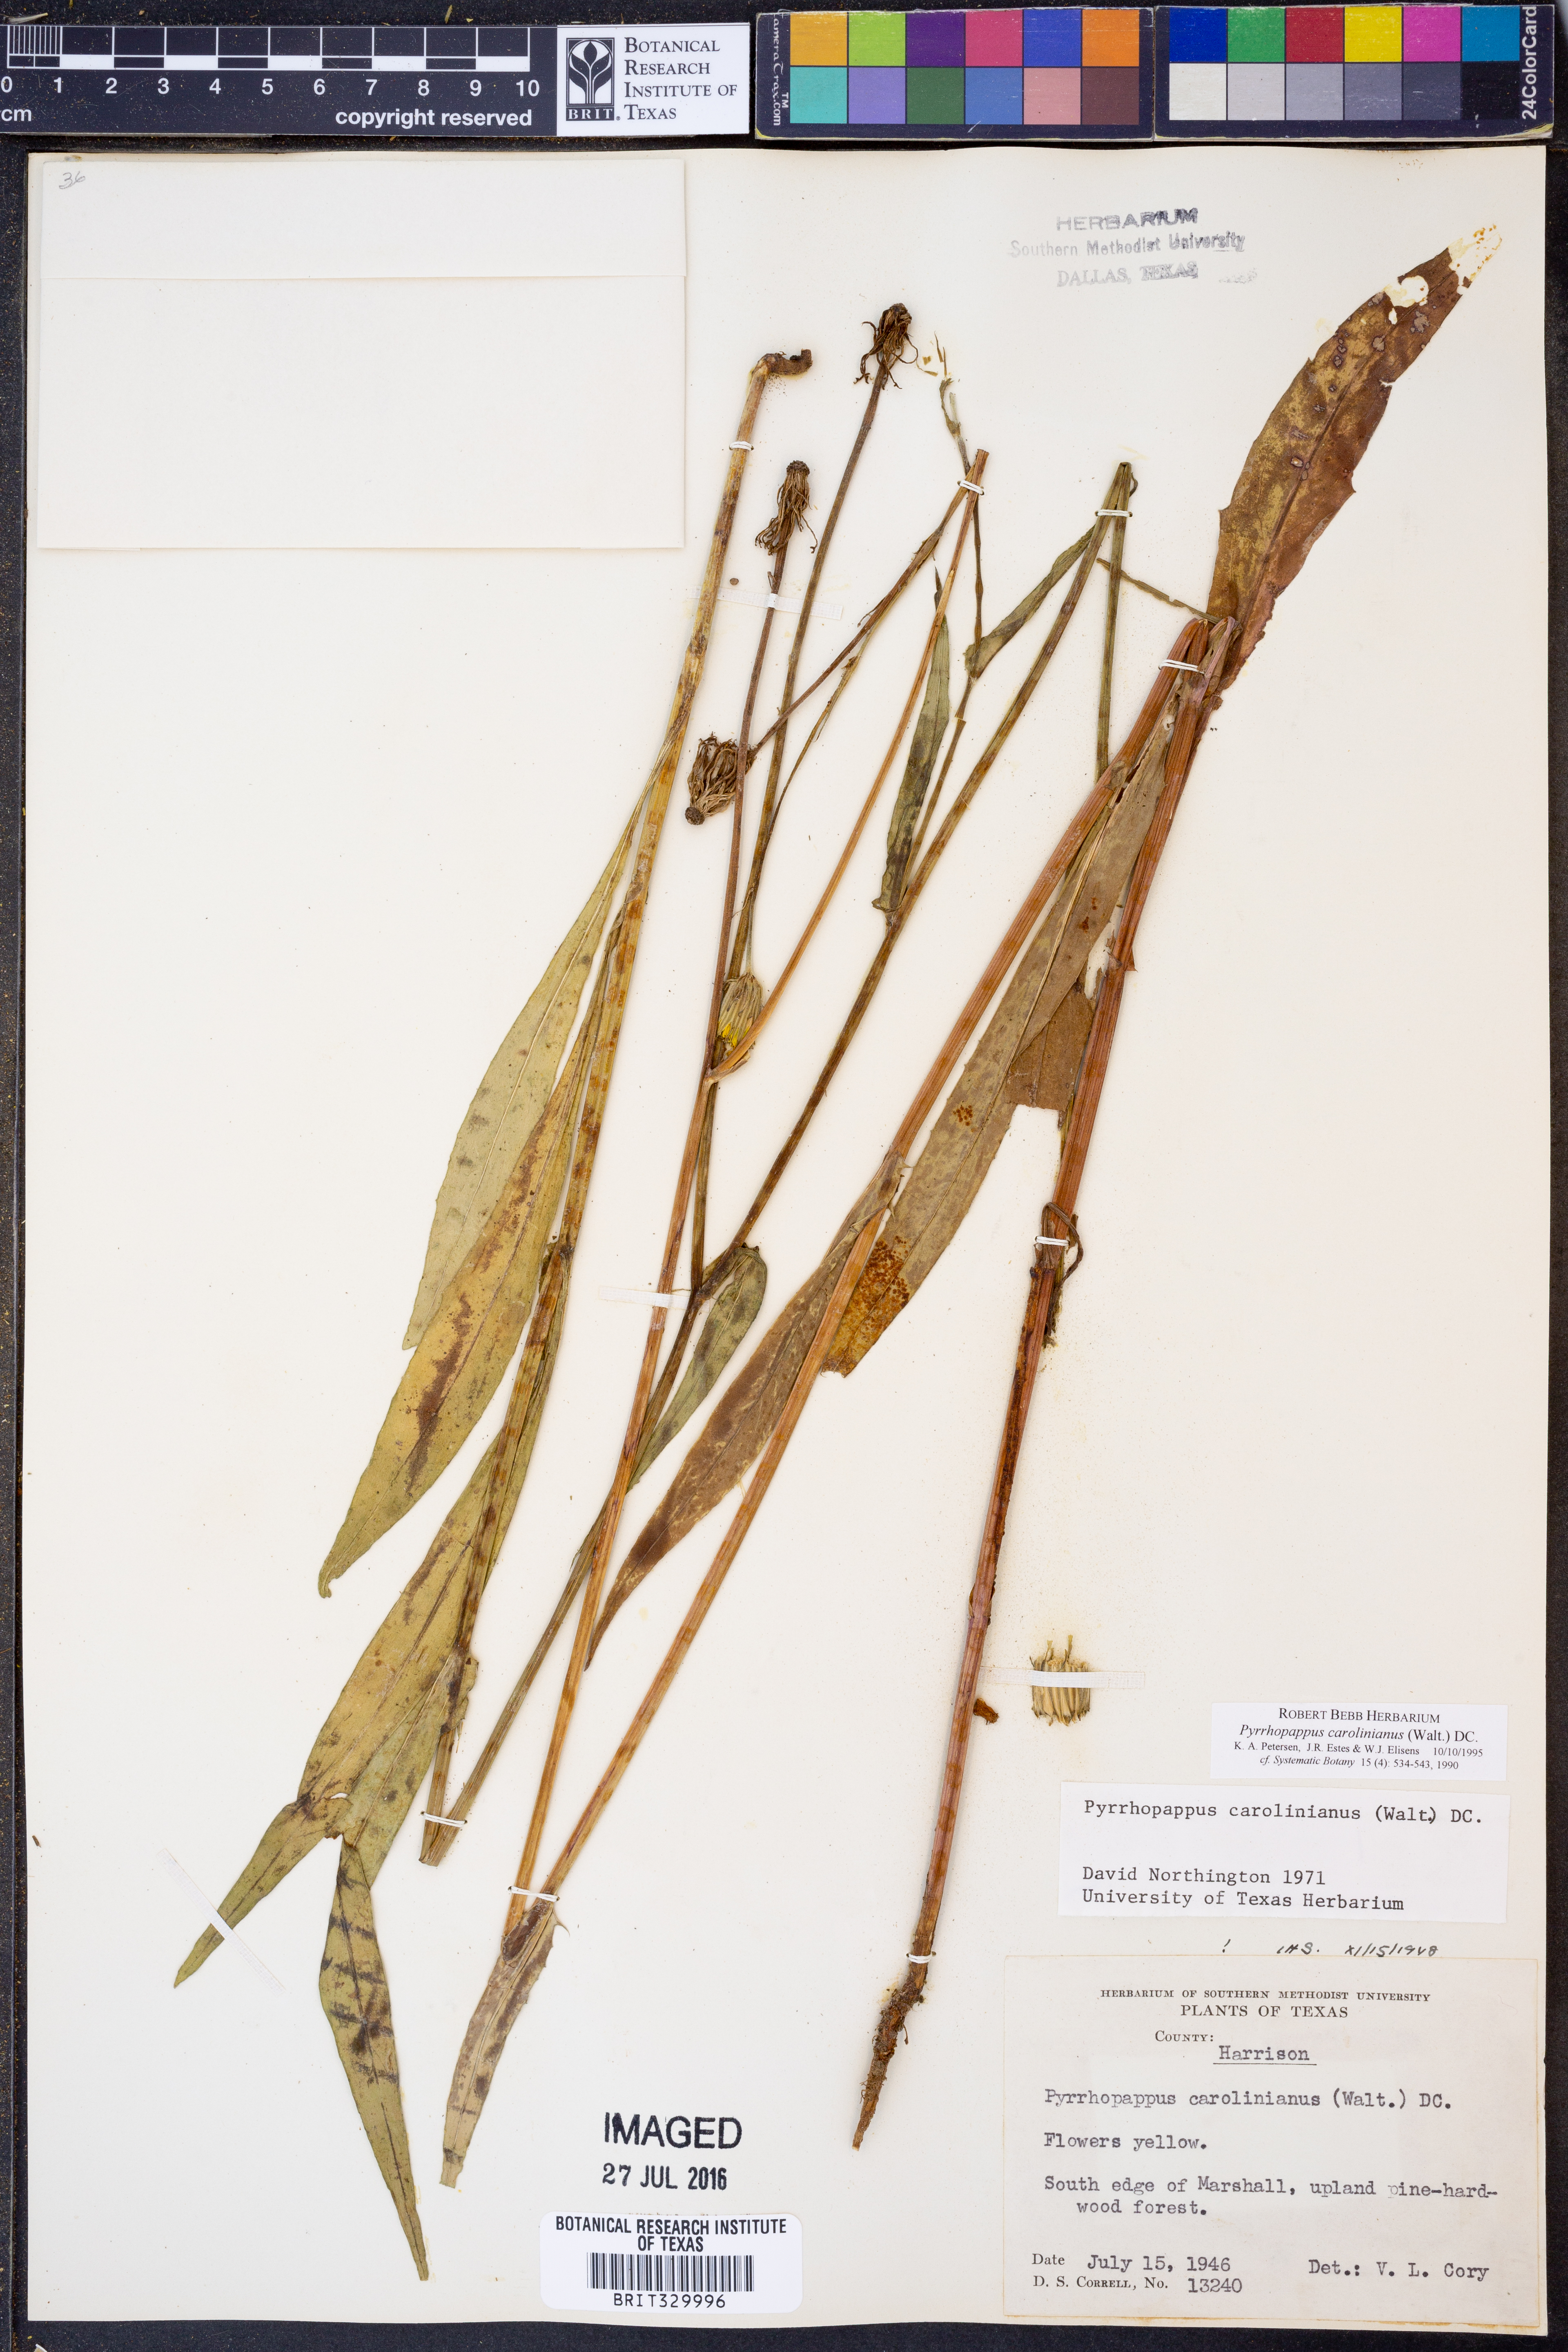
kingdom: Plantae
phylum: Tracheophyta
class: Magnoliopsida
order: Asterales
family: Asteraceae
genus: Pyrrhopappus
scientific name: Pyrrhopappus carolinianus
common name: Carolina desert-chicory
